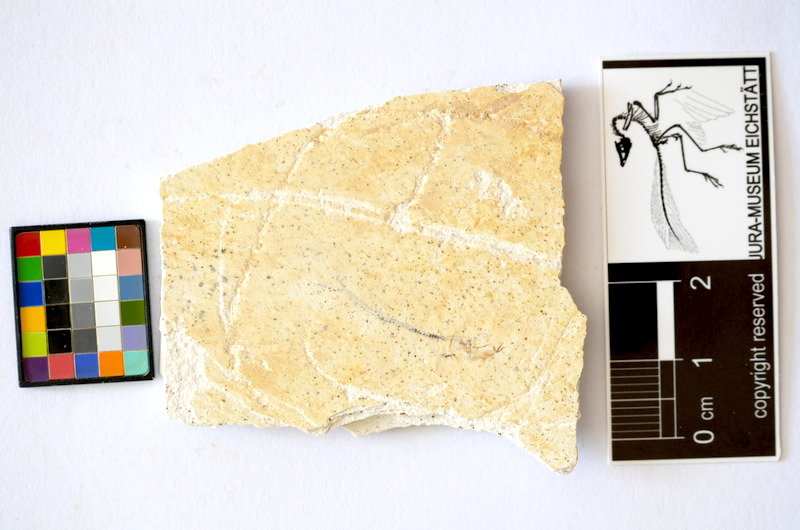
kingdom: Animalia
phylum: Chordata
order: Salmoniformes
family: Orthogonikleithridae
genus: Orthogonikleithrus
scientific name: Orthogonikleithrus hoelli
